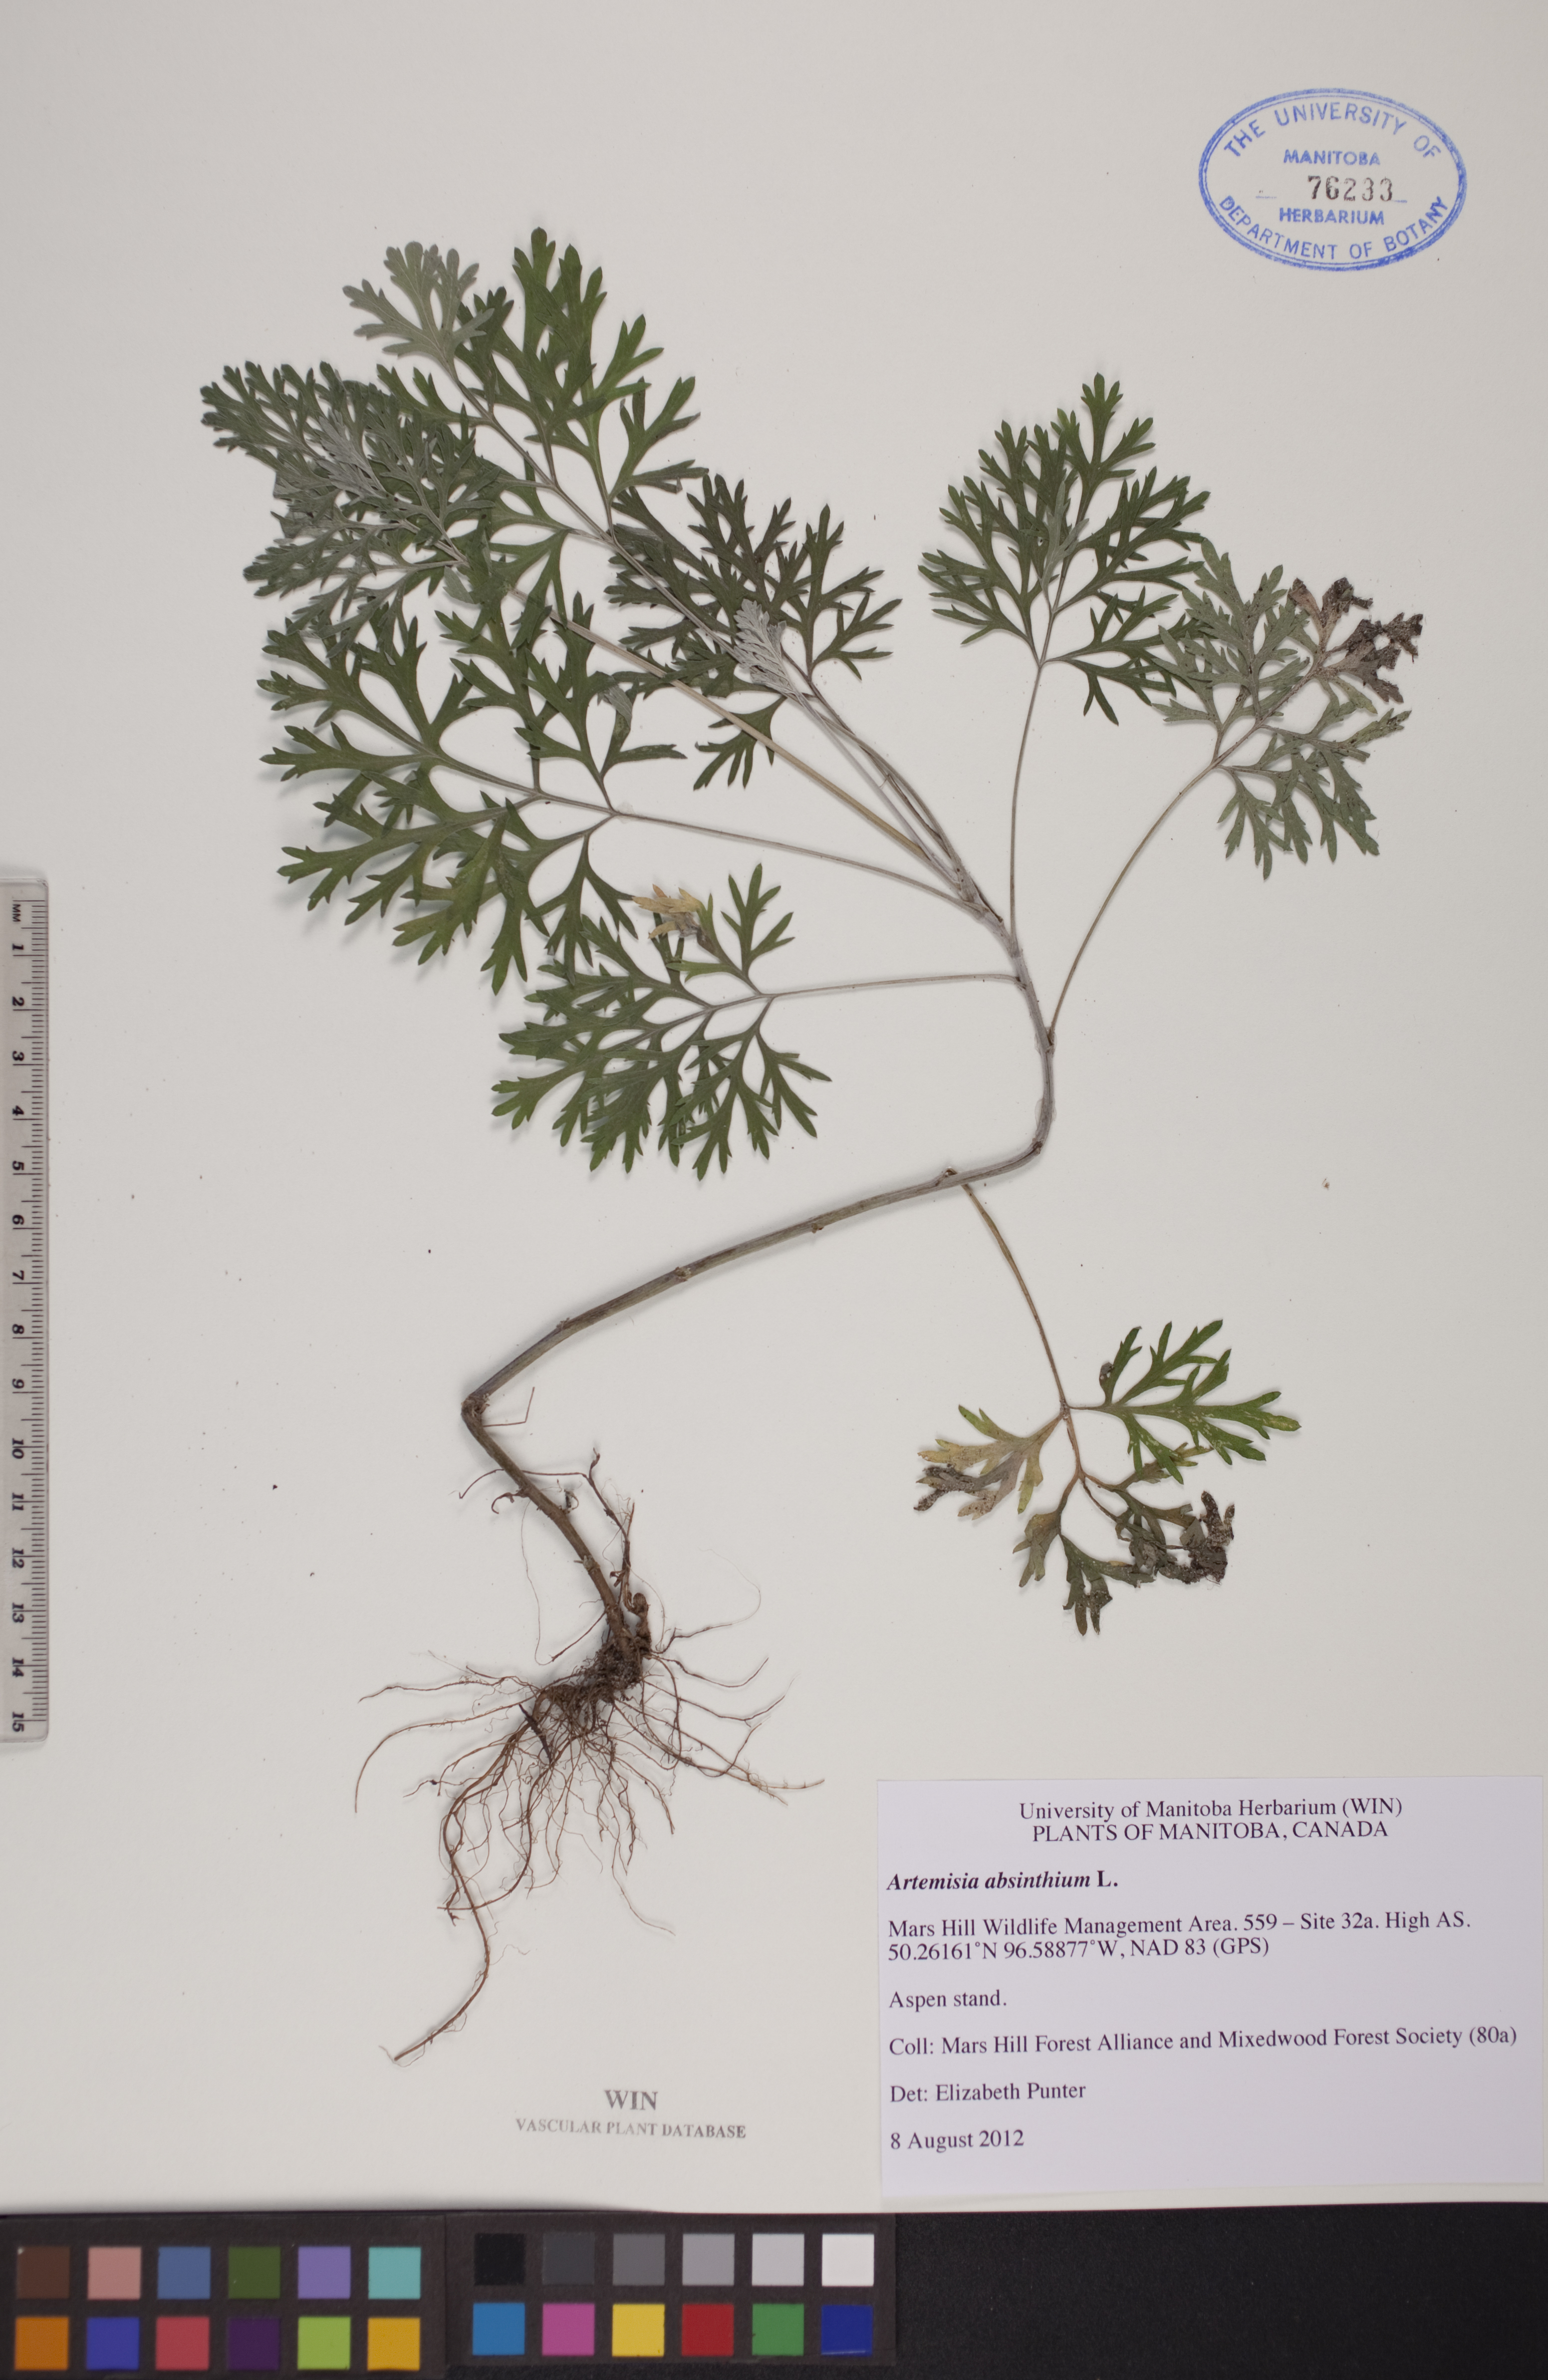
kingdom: Plantae
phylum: Tracheophyta
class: Magnoliopsida
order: Asterales
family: Asteraceae
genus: Artemisia
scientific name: Artemisia absinthium
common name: Wormwood
